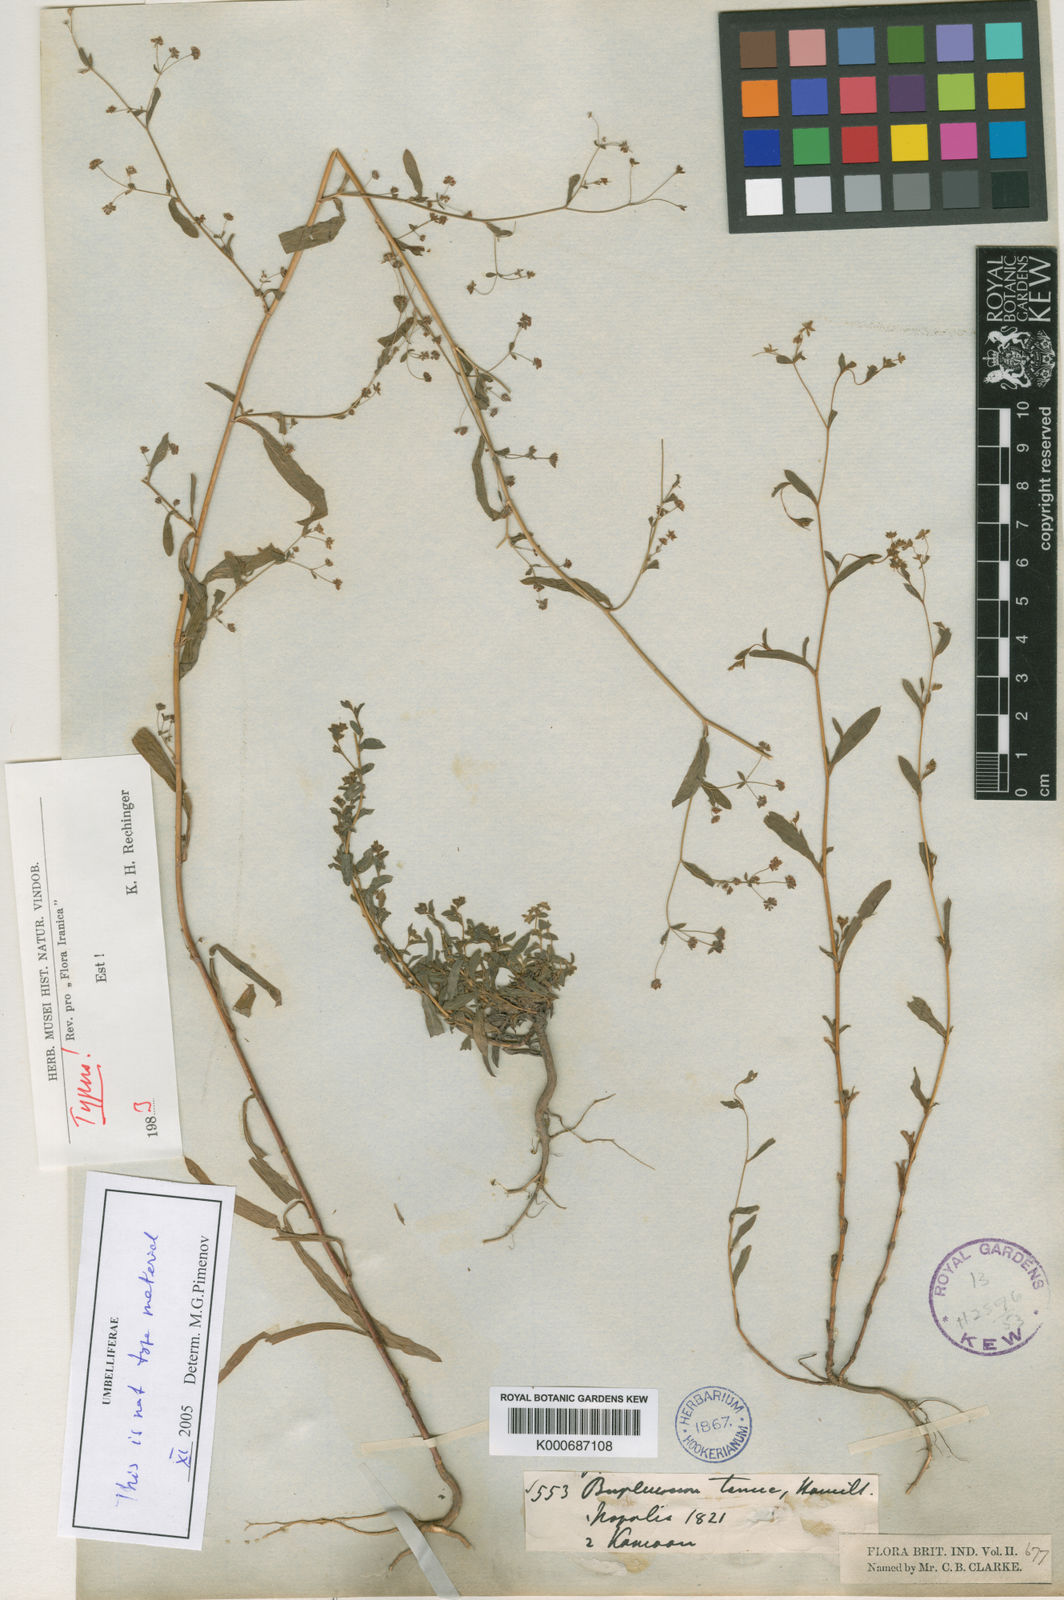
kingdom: Plantae
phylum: Tracheophyta
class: Magnoliopsida
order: Apiales
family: Apiaceae
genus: Bupleurum
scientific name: Bupleurum
